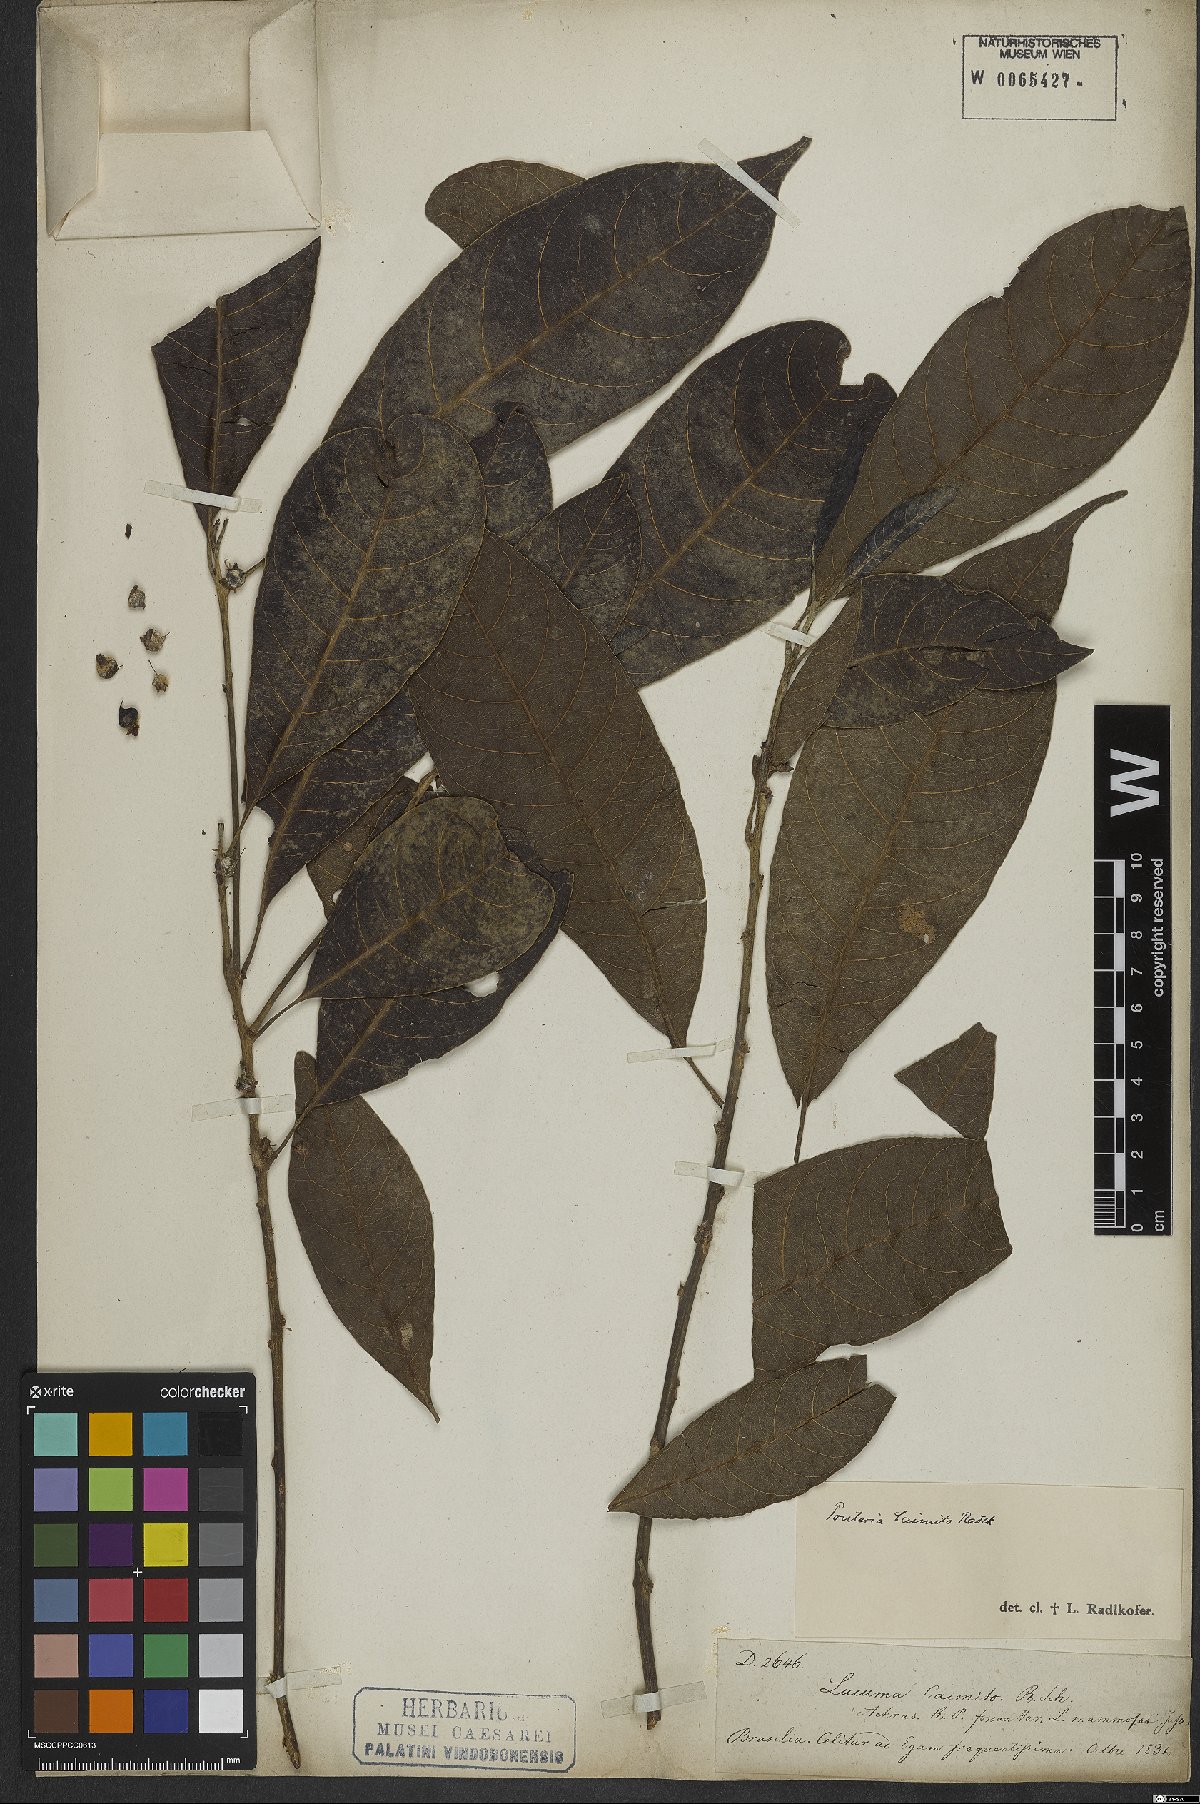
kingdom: Plantae
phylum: Tracheophyta
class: Magnoliopsida
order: Ericales
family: Sapotaceae
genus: Pouteria
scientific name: Pouteria caimito
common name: Caimito
